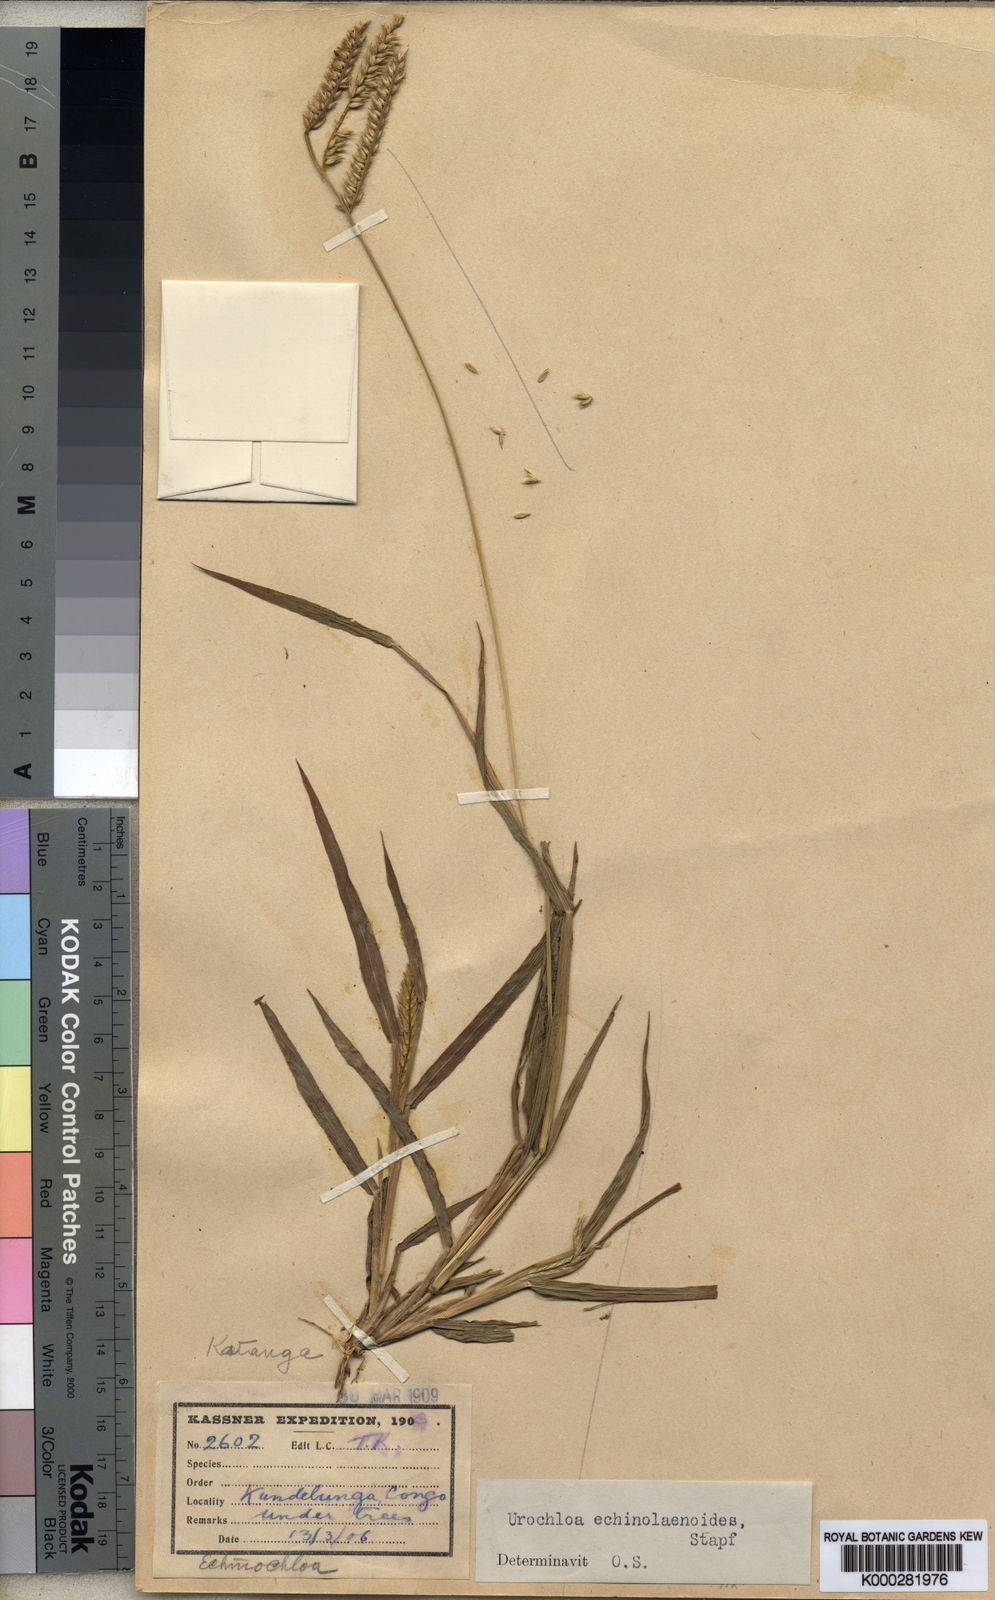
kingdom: Plantae
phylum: Tracheophyta
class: Liliopsida
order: Poales
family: Poaceae
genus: Urochloa
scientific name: Urochloa echinolaenoides
